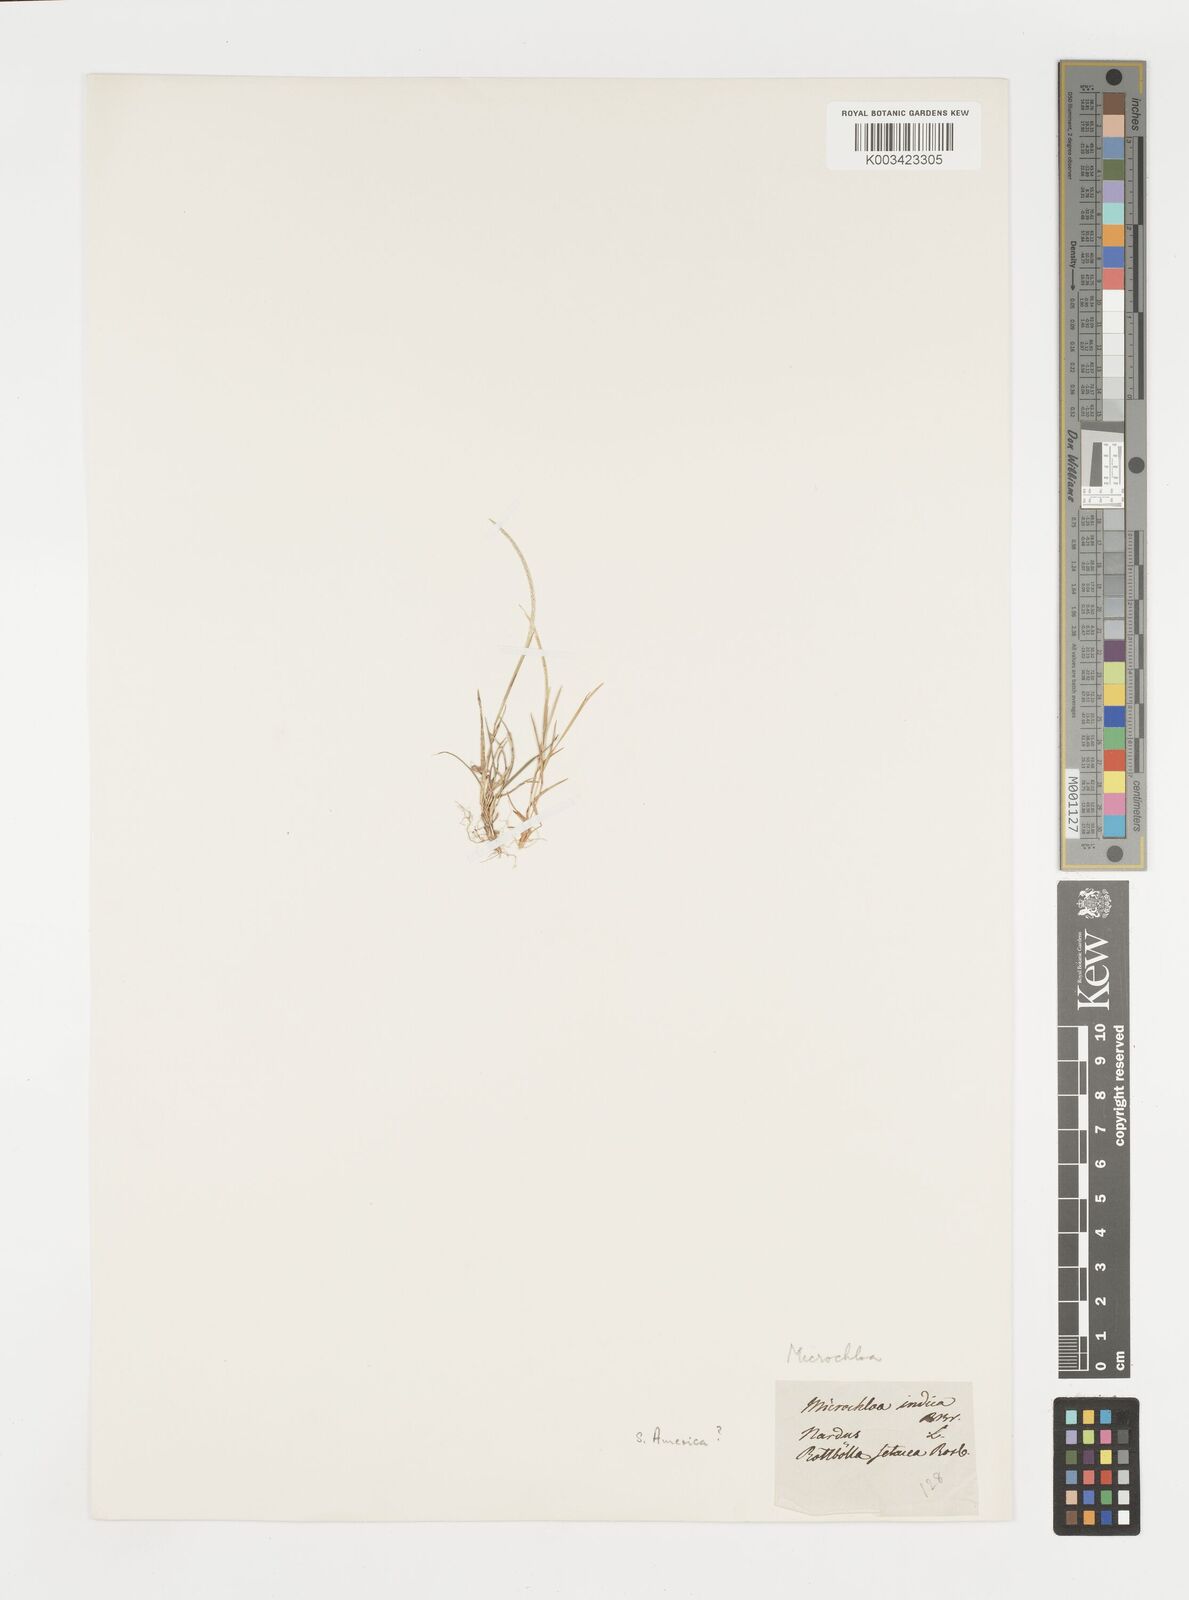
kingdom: Plantae
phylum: Tracheophyta
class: Liliopsida
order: Poales
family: Poaceae
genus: Microchloa
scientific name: Microchloa indica
